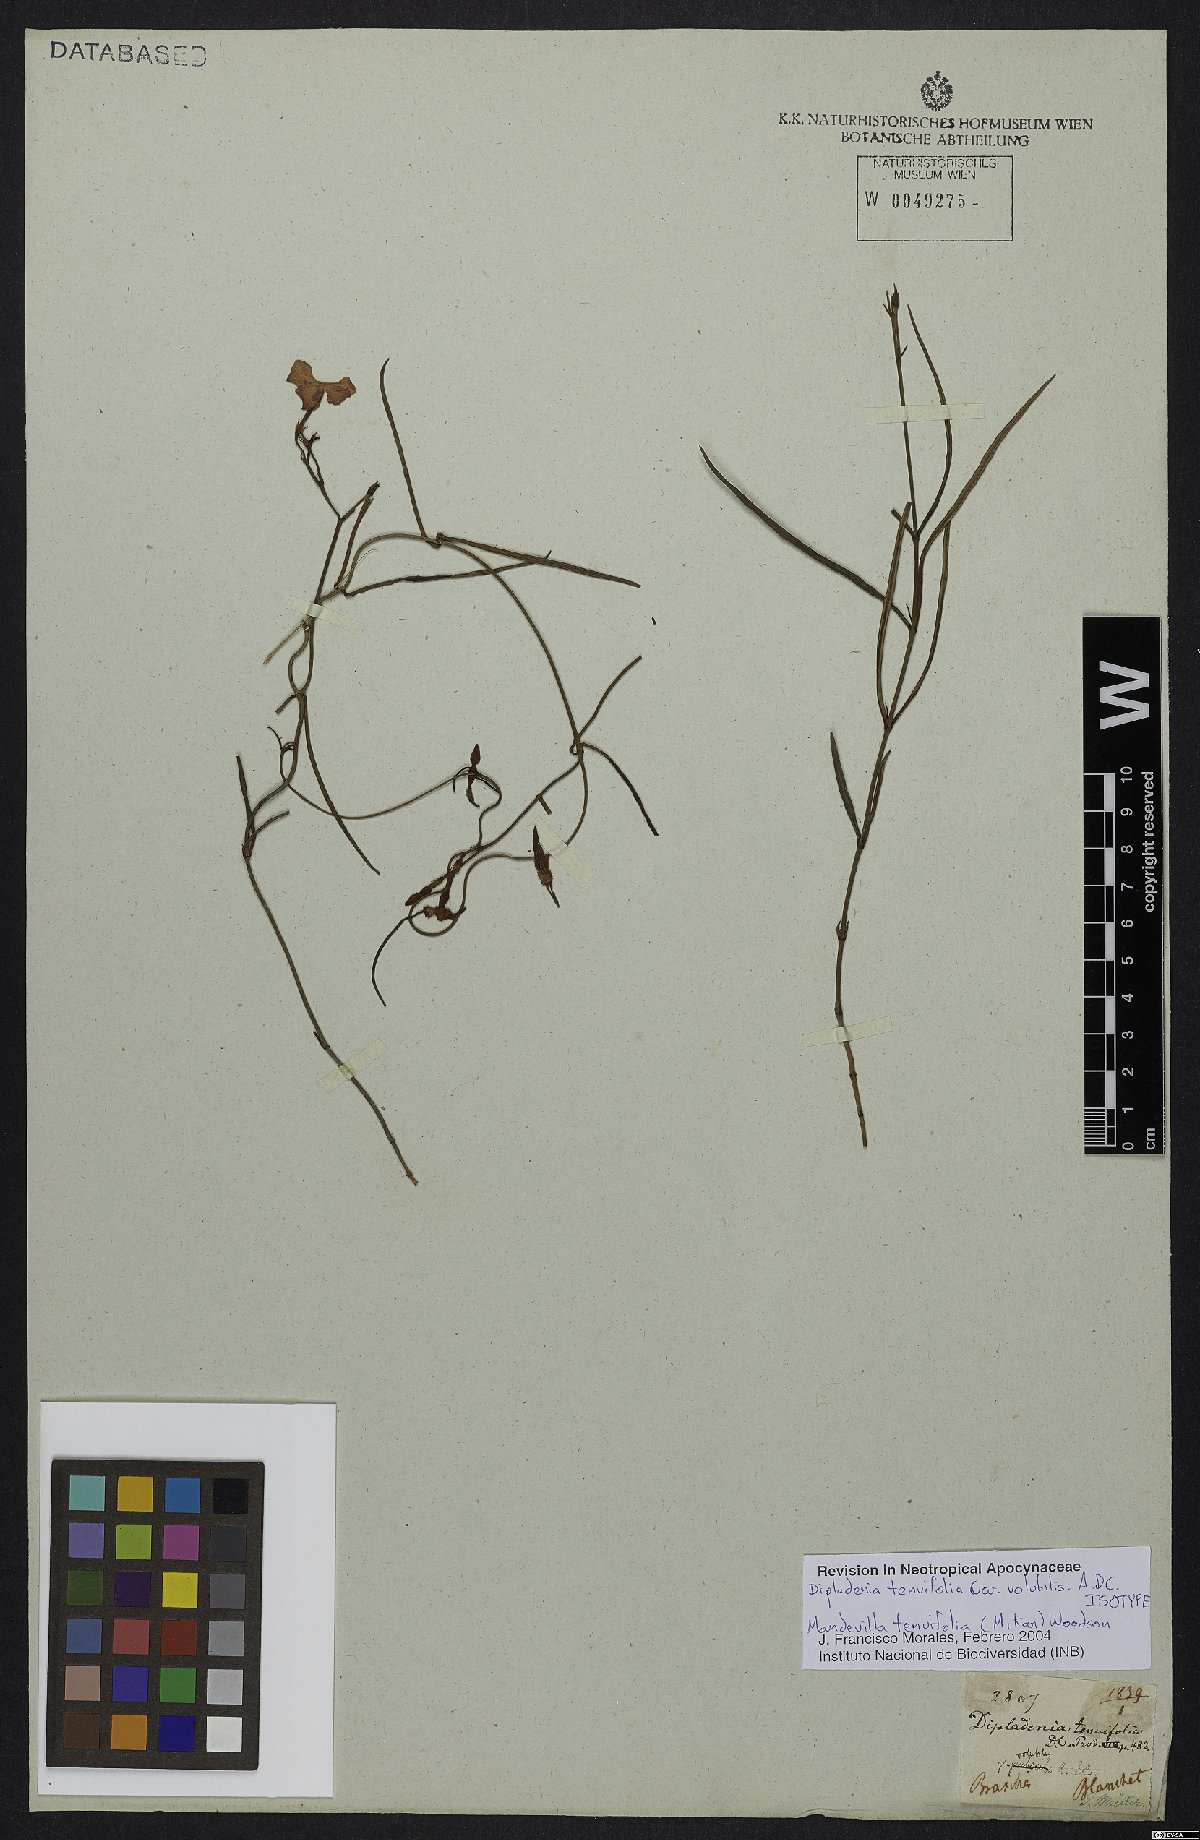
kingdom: Plantae
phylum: Tracheophyta
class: Magnoliopsida
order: Gentianales
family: Apocynaceae
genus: Mandevilla
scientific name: Mandevilla tenuifolia
